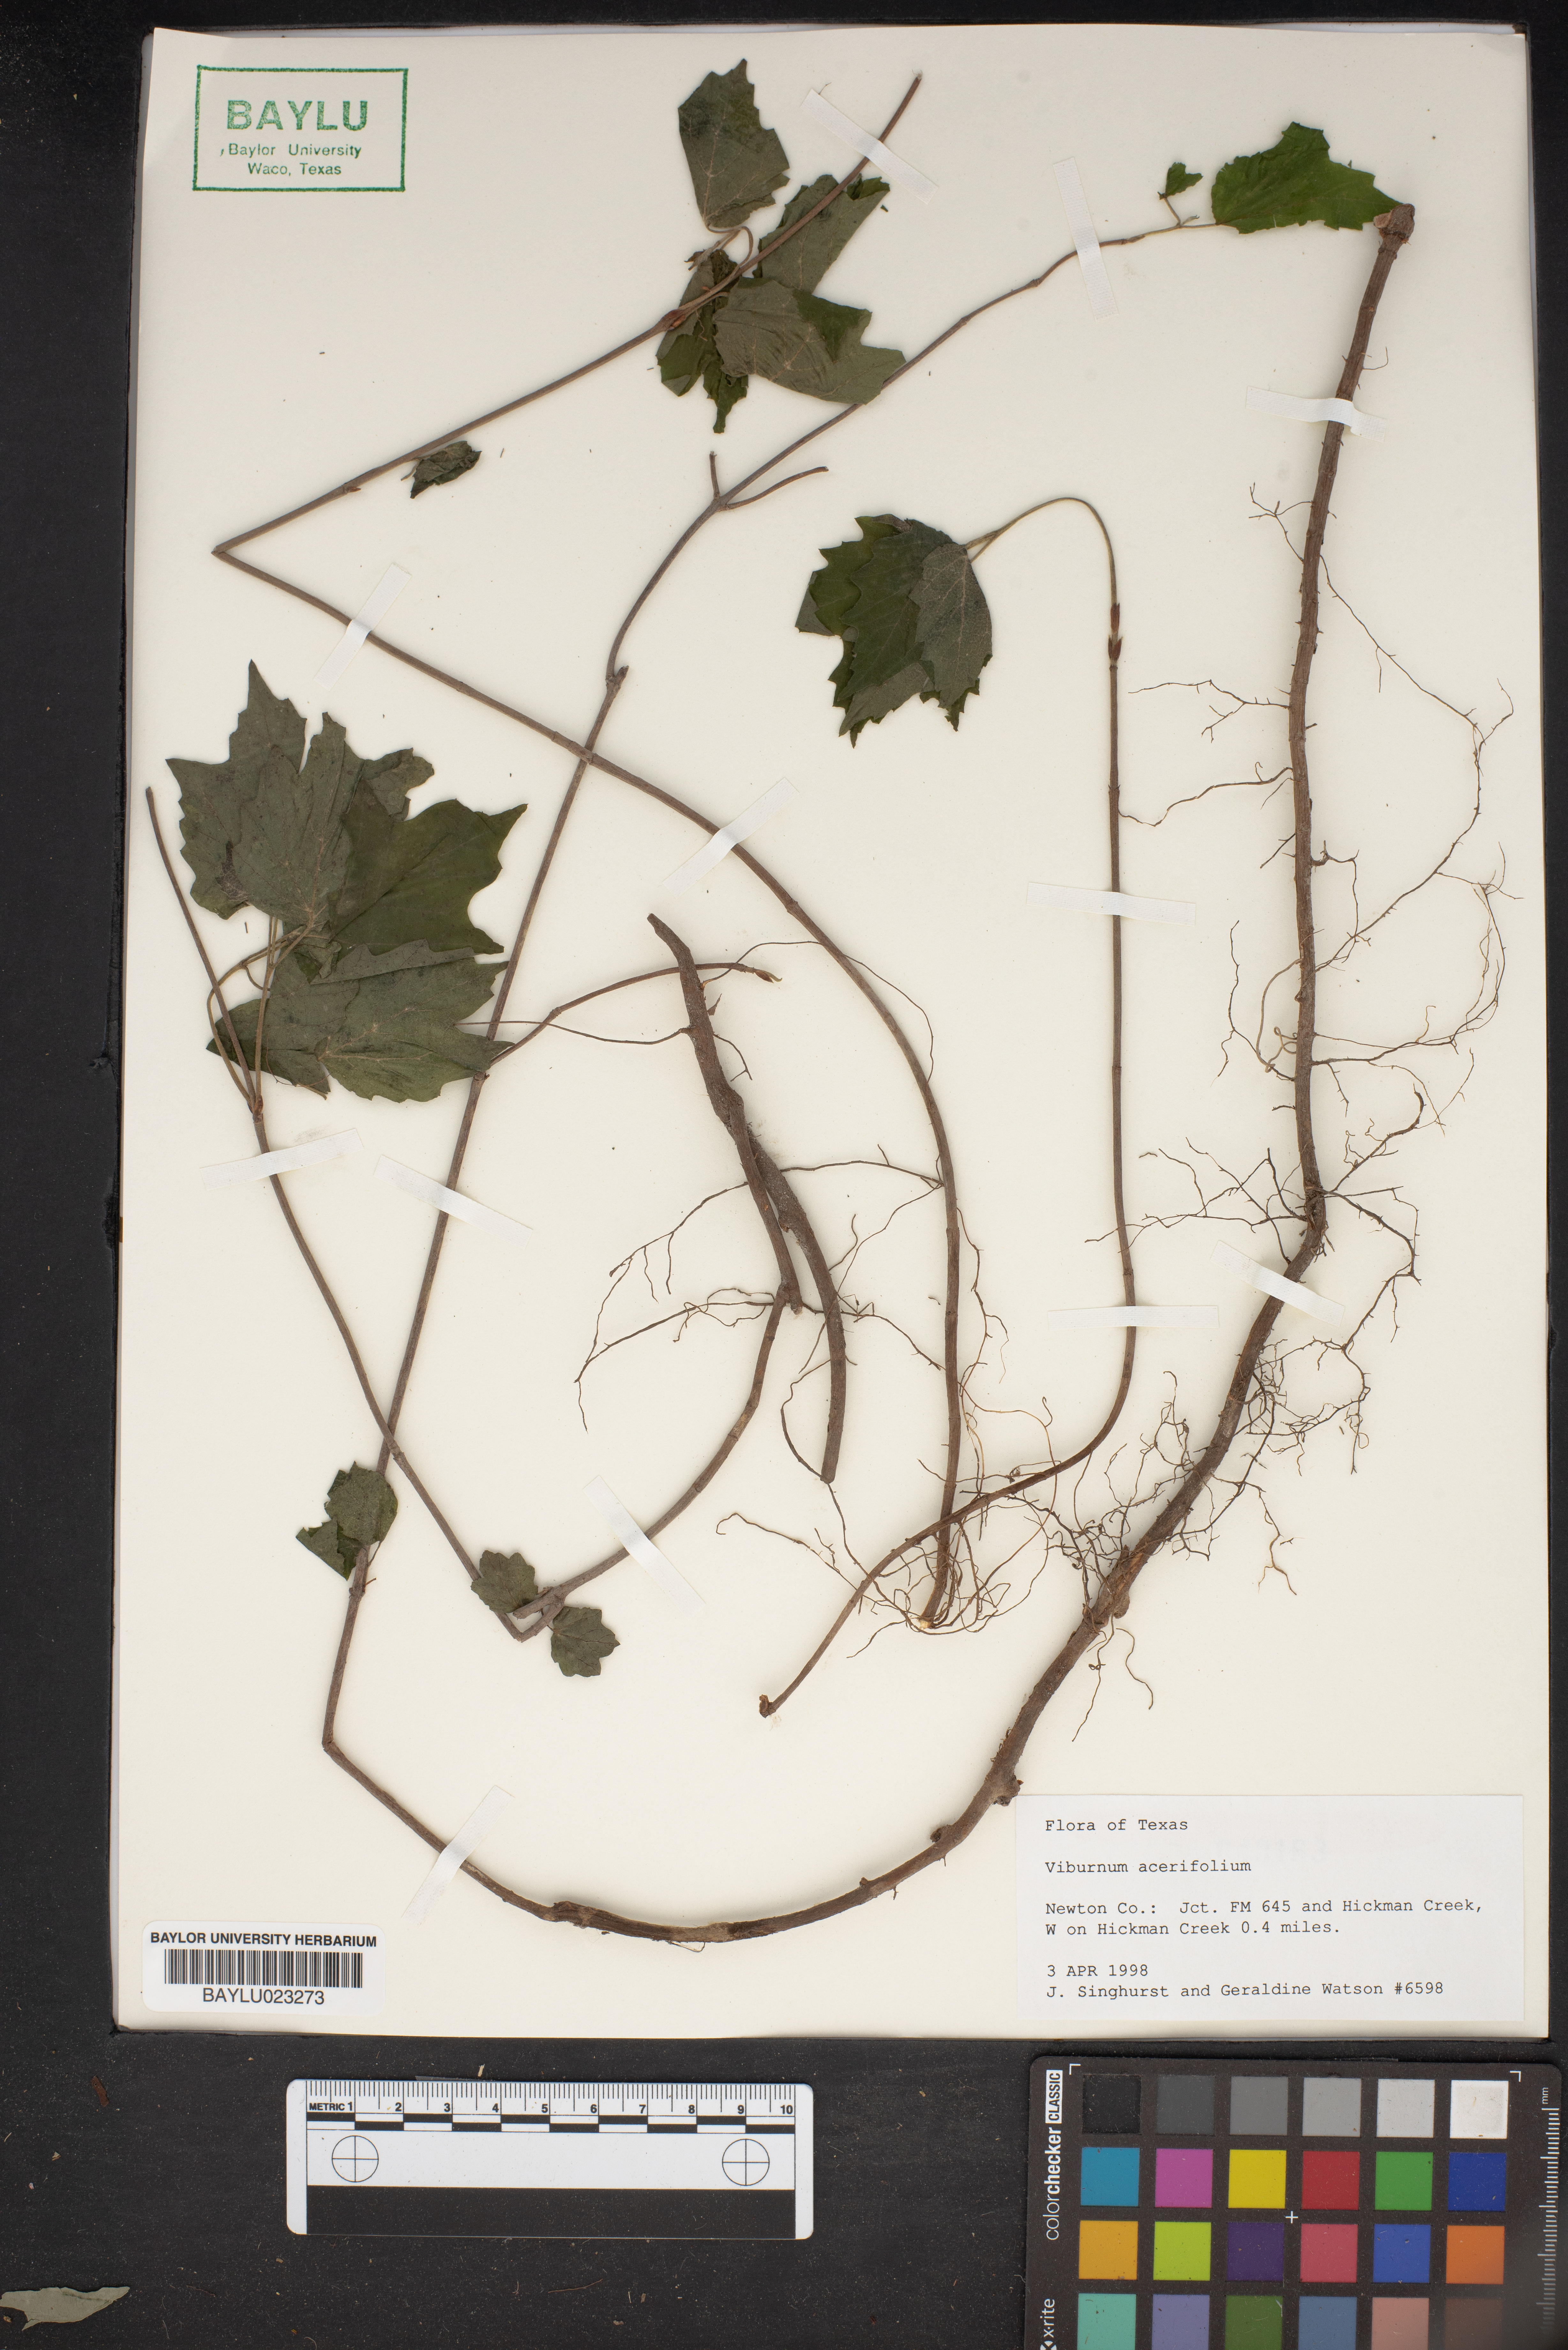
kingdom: Plantae
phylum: Tracheophyta
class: Magnoliopsida
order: Dipsacales
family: Viburnaceae
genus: Viburnum
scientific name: Viburnum acerifolium
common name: Dockmackie
